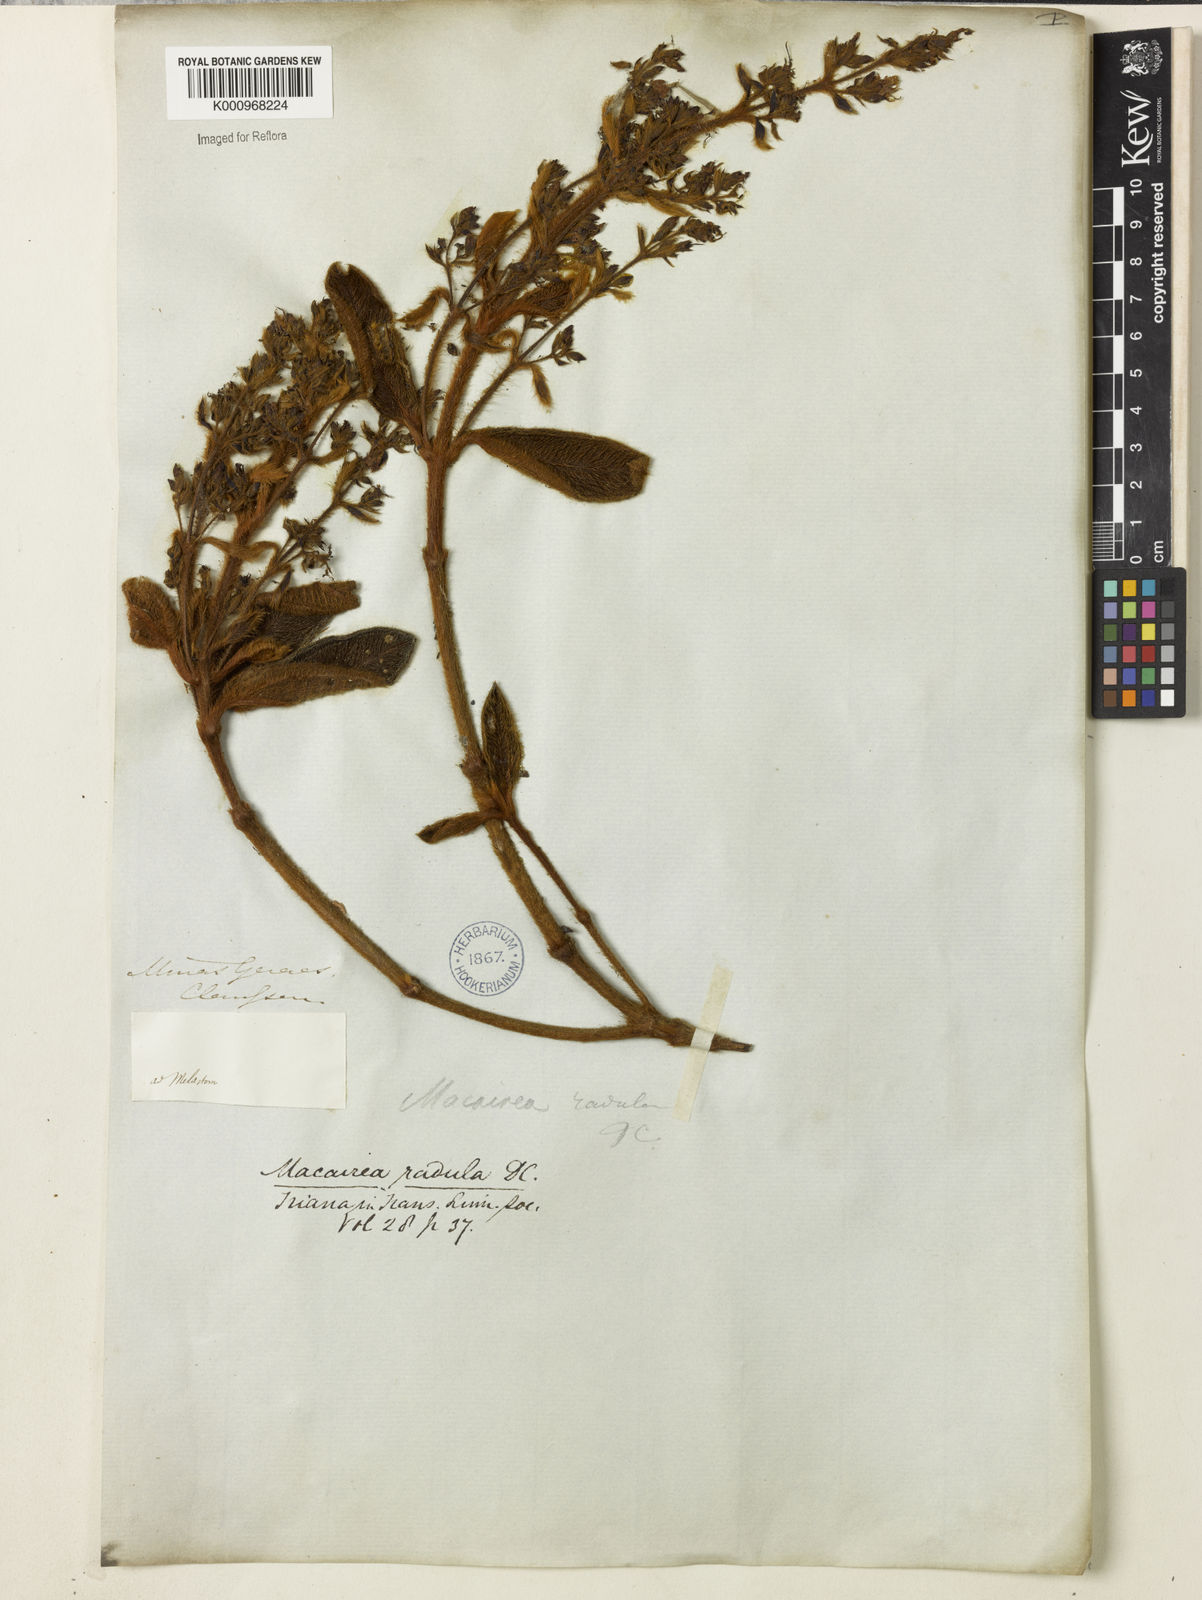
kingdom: Plantae
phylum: Tracheophyta
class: Magnoliopsida
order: Myrtales
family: Melastomataceae
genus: Macairea
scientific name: Macairea radula
